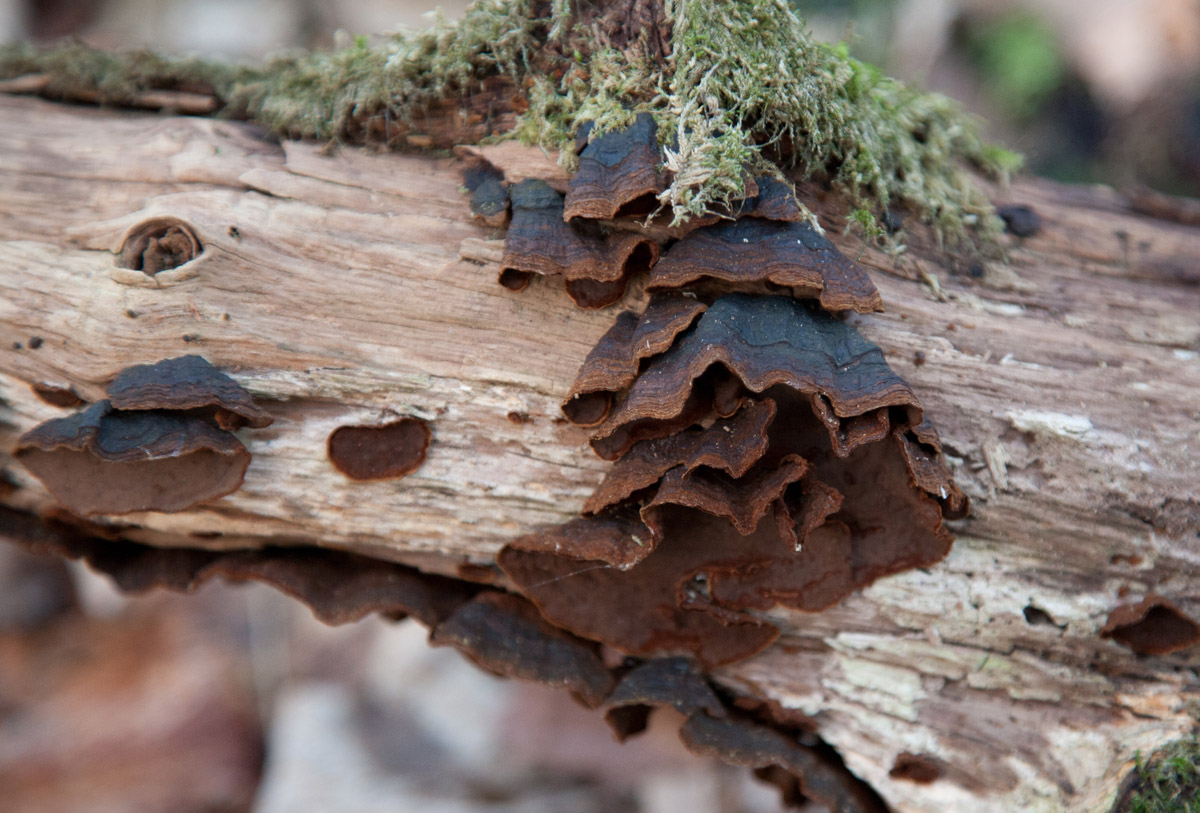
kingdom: Fungi
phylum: Basidiomycota
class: Agaricomycetes
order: Hymenochaetales
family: Hymenochaetaceae
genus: Hymenochaete
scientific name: Hymenochaete rubiginosa
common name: stiv ruslædersvamp
